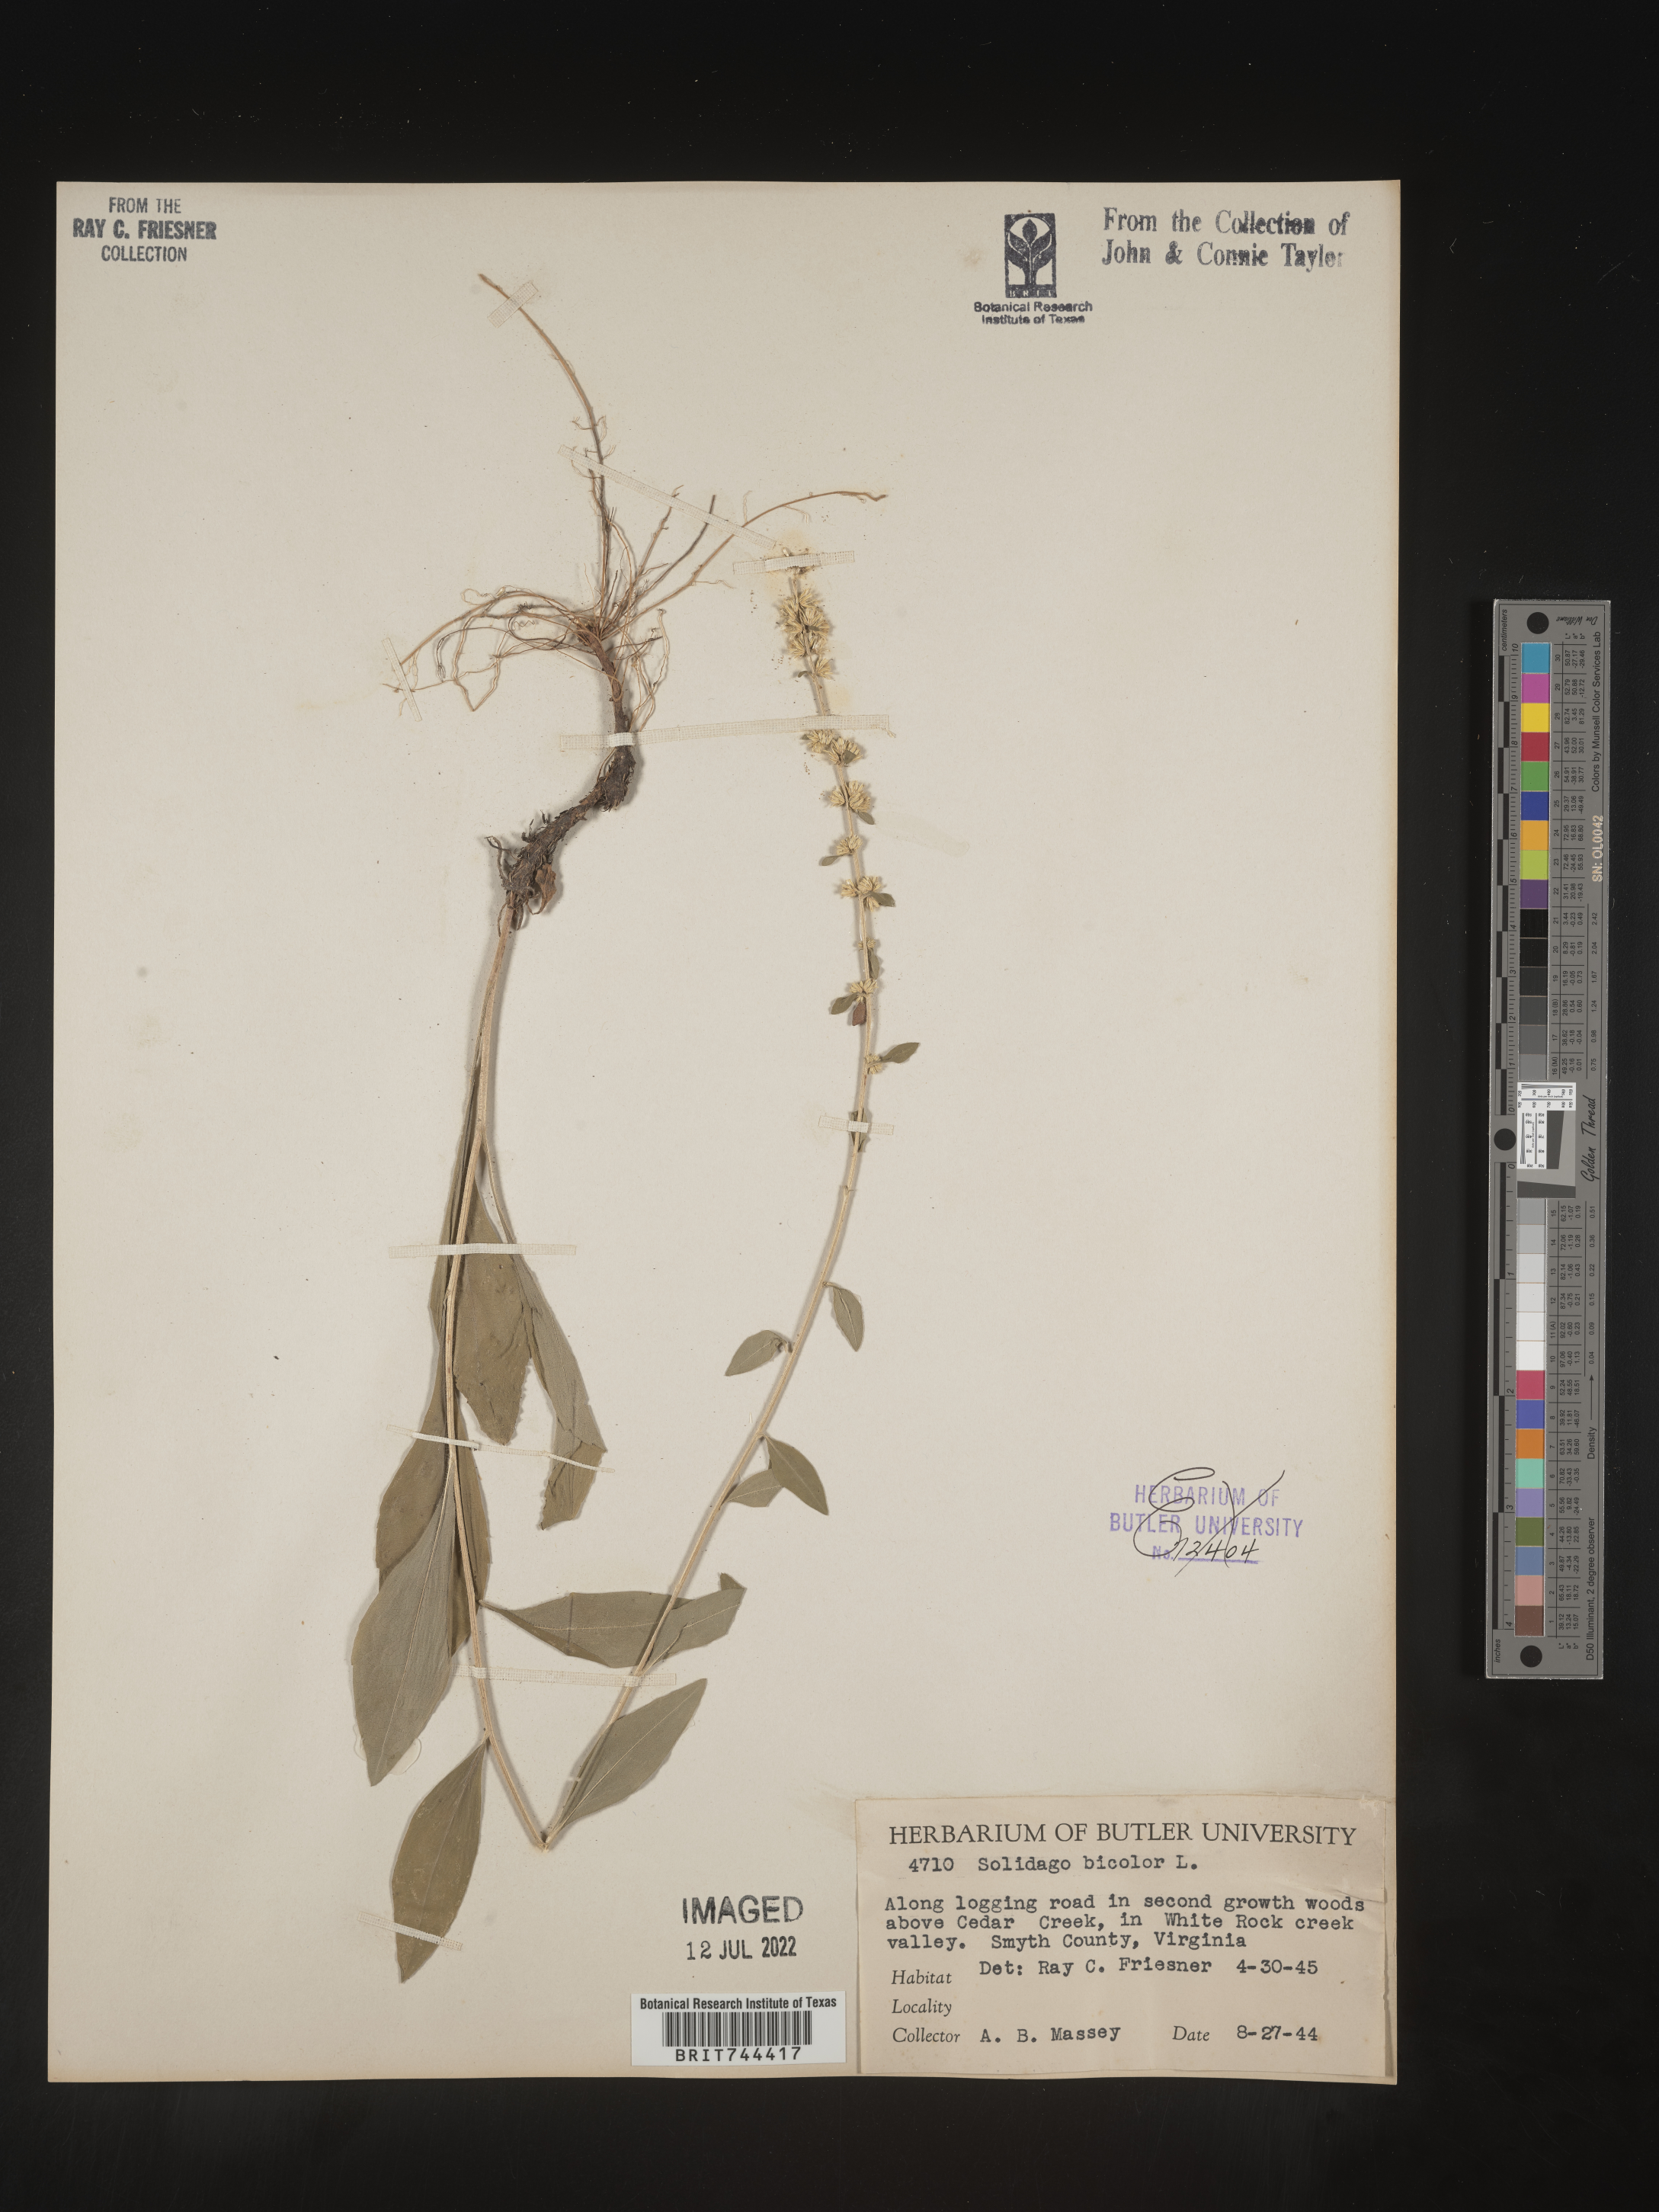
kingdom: Plantae
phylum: Tracheophyta
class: Magnoliopsida
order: Asterales
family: Asteraceae
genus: Solidago
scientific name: Solidago bicolor
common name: Silverrod
